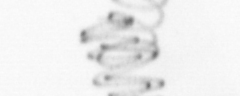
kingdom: Chromista
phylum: Ochrophyta
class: Bacillariophyceae
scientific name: Bacillariophyceae
